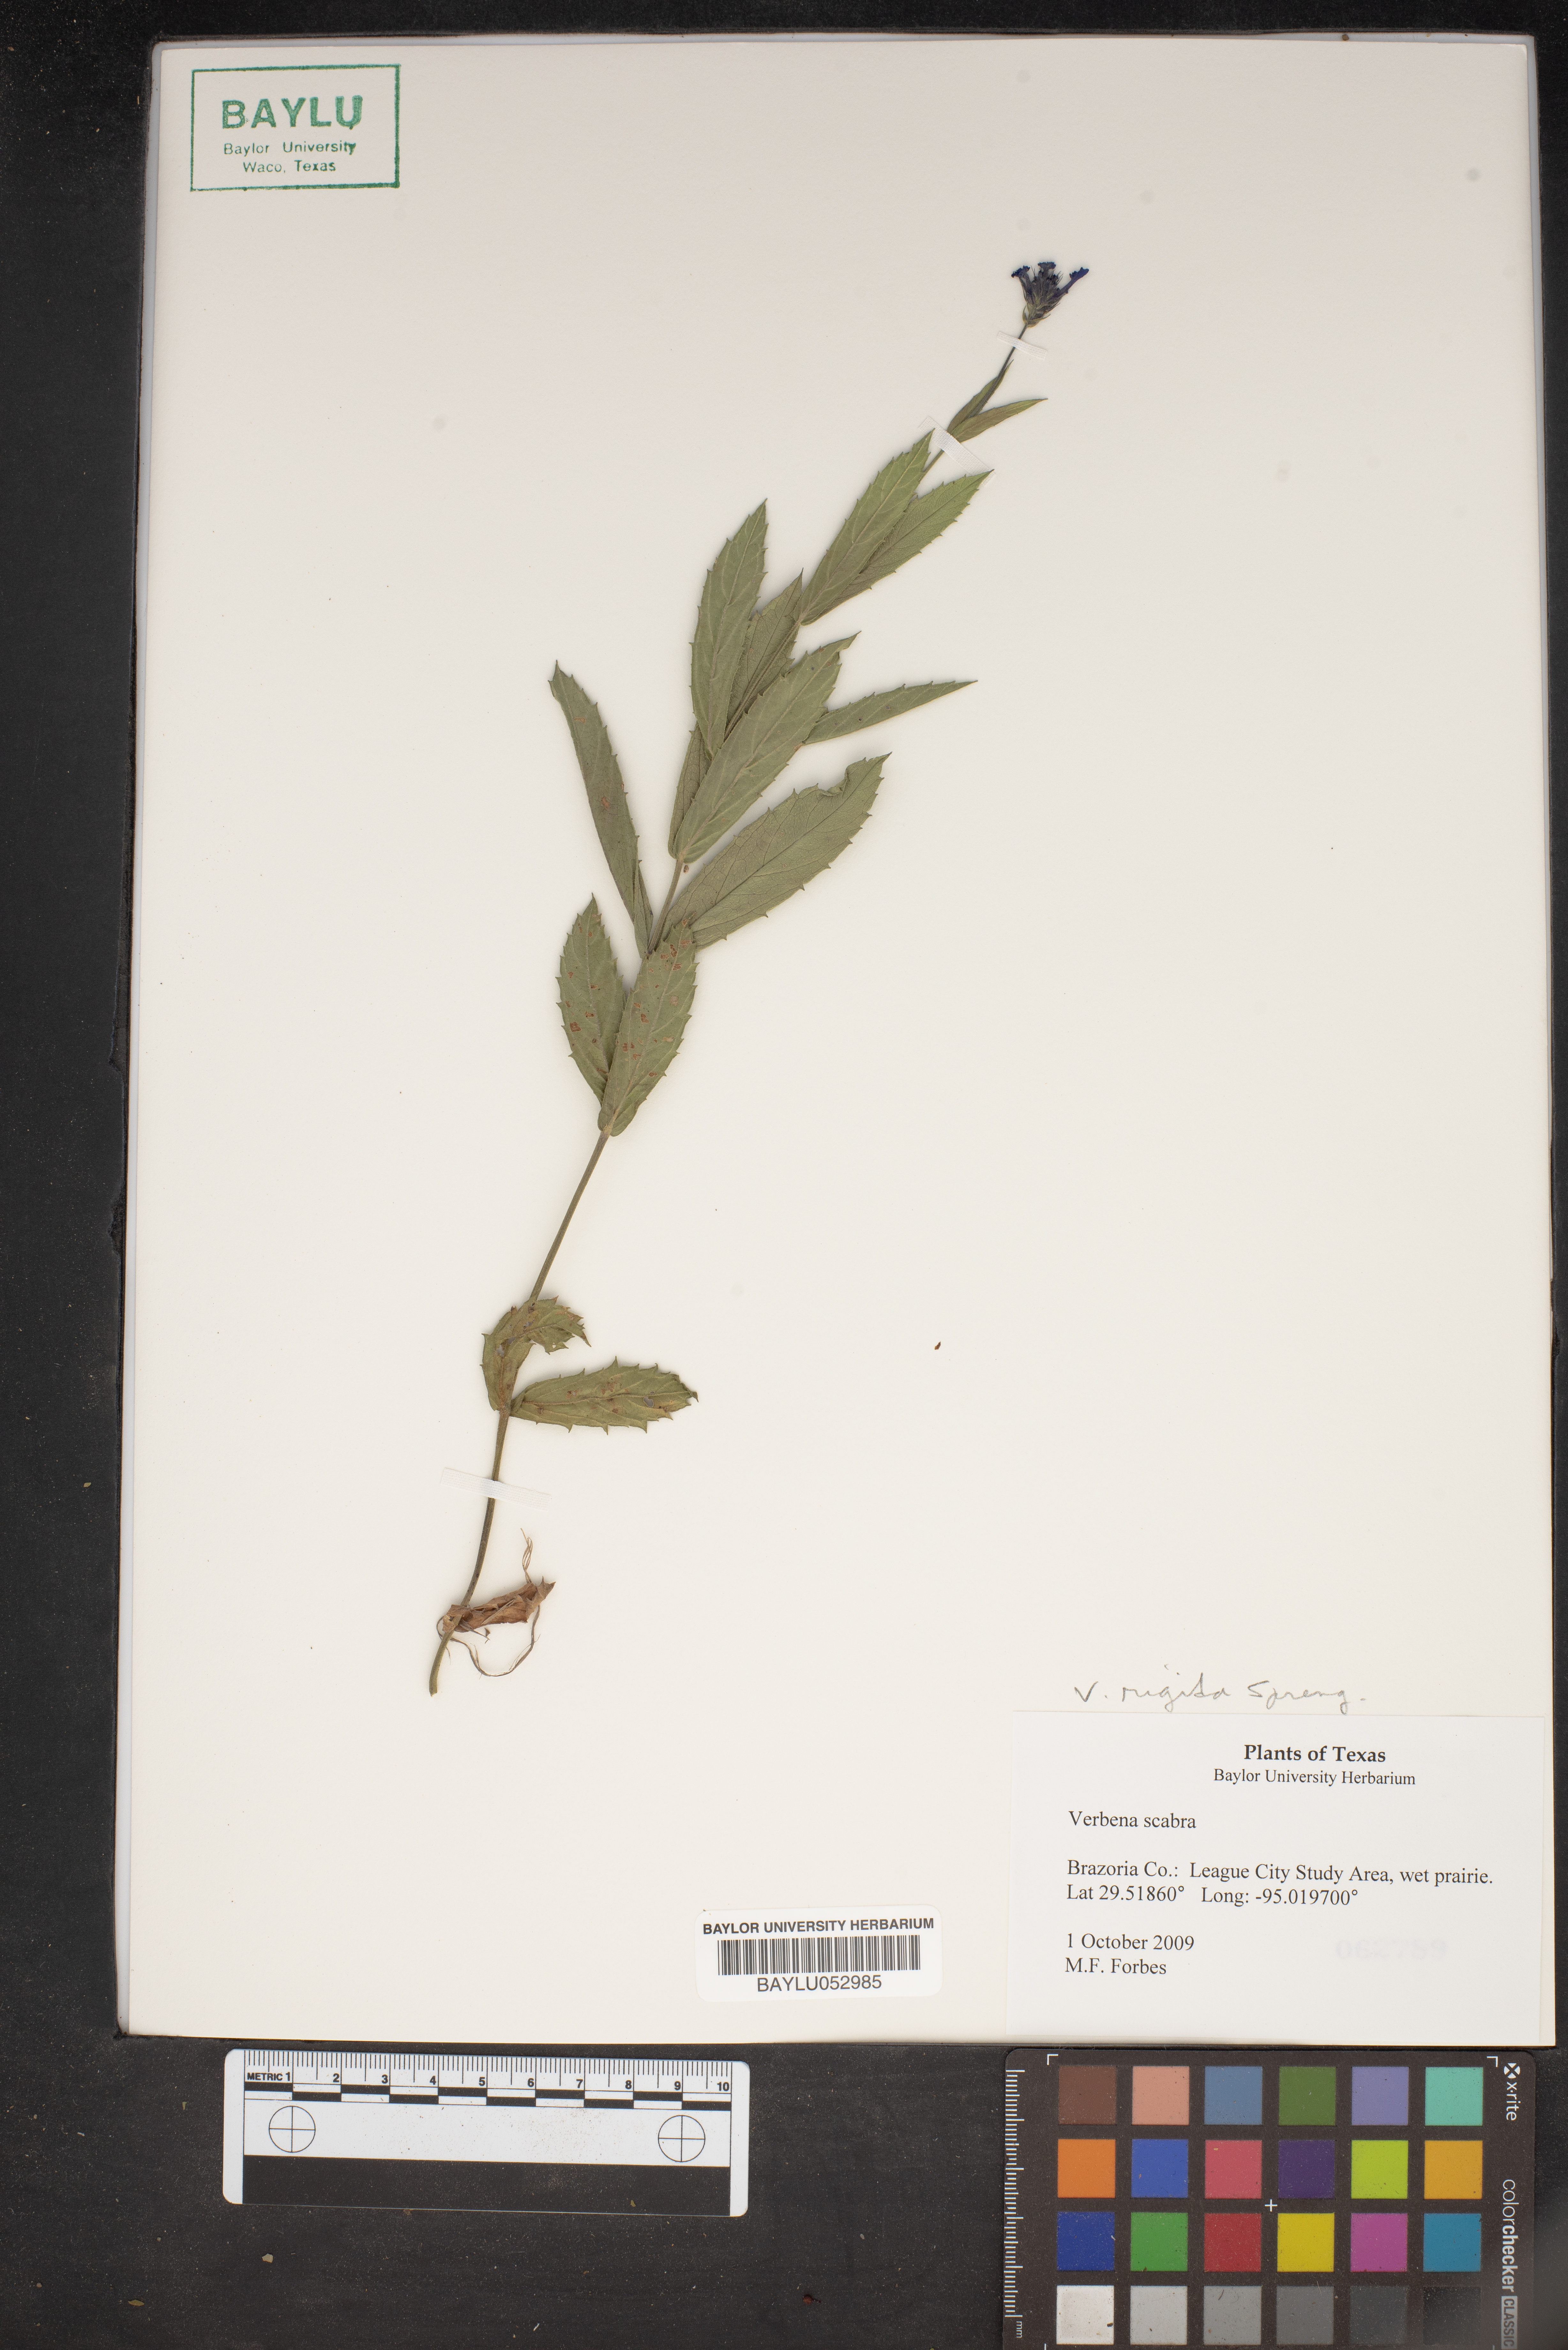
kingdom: Plantae
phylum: Tracheophyta
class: Magnoliopsida
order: Lamiales
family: Verbenaceae
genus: Verbena
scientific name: Verbena scabra
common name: Sandpaper vervain
